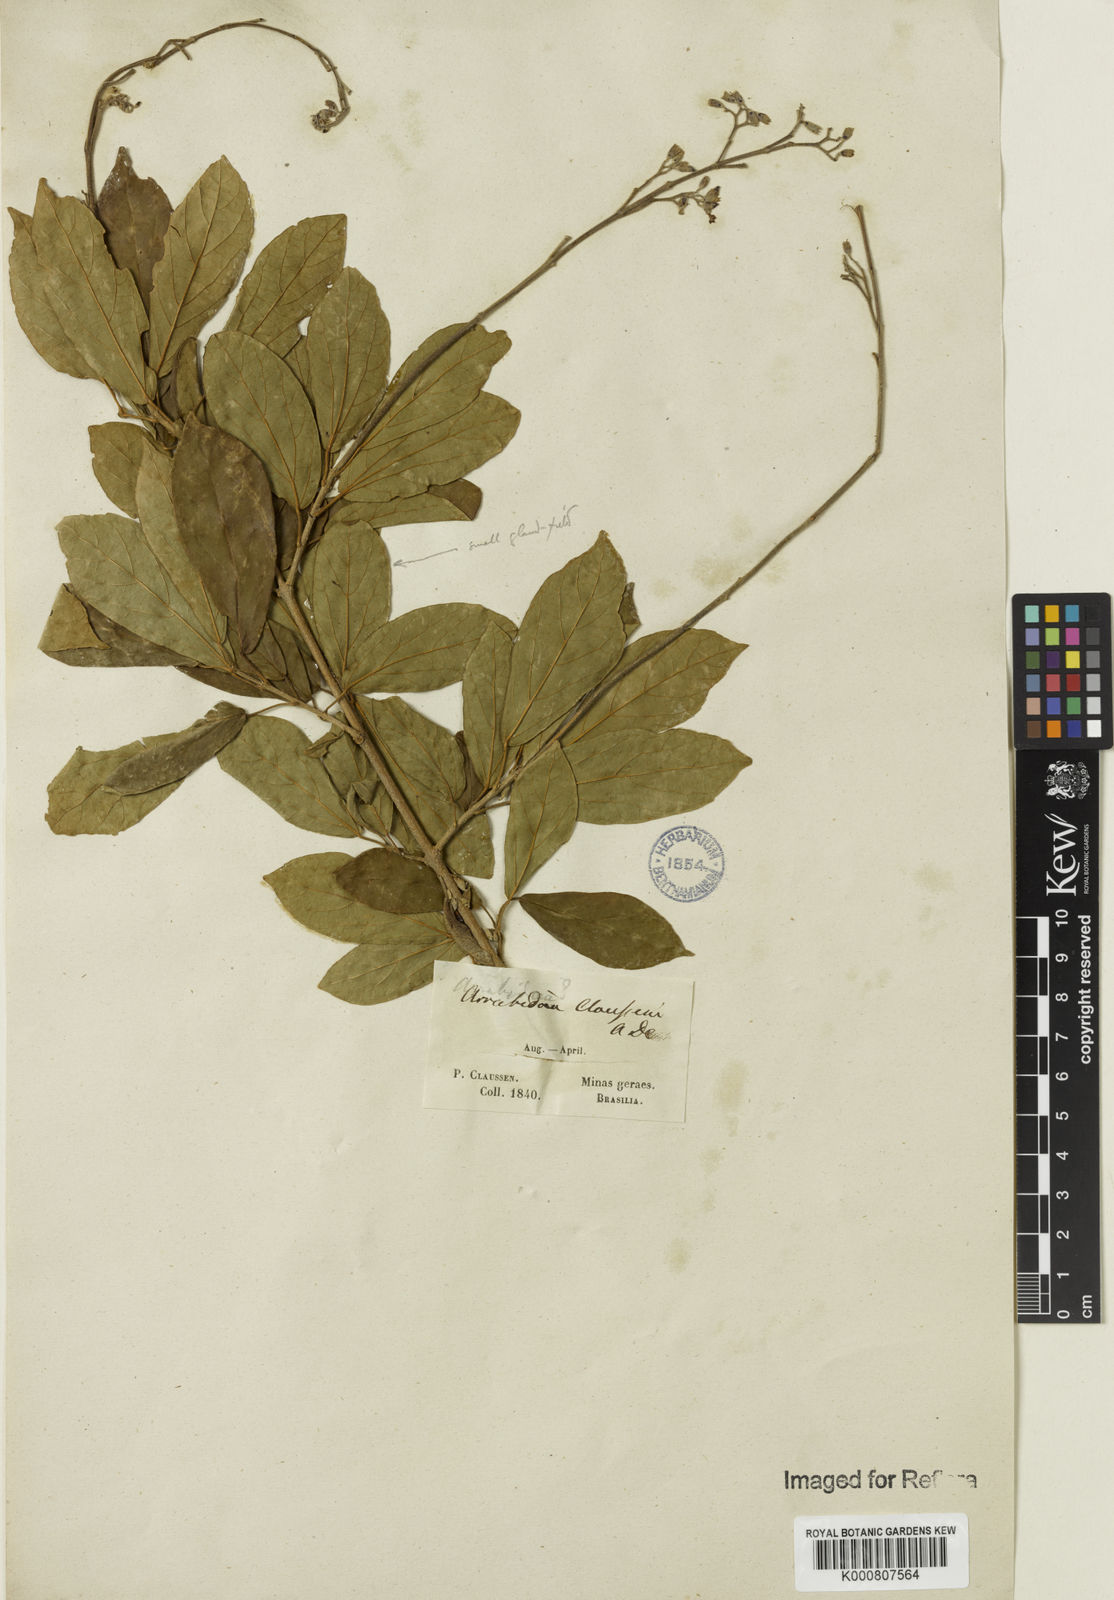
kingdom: Plantae
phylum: Tracheophyta
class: Magnoliopsida
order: Lamiales
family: Bignoniaceae
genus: Xylophragma
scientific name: Xylophragma claussenii
